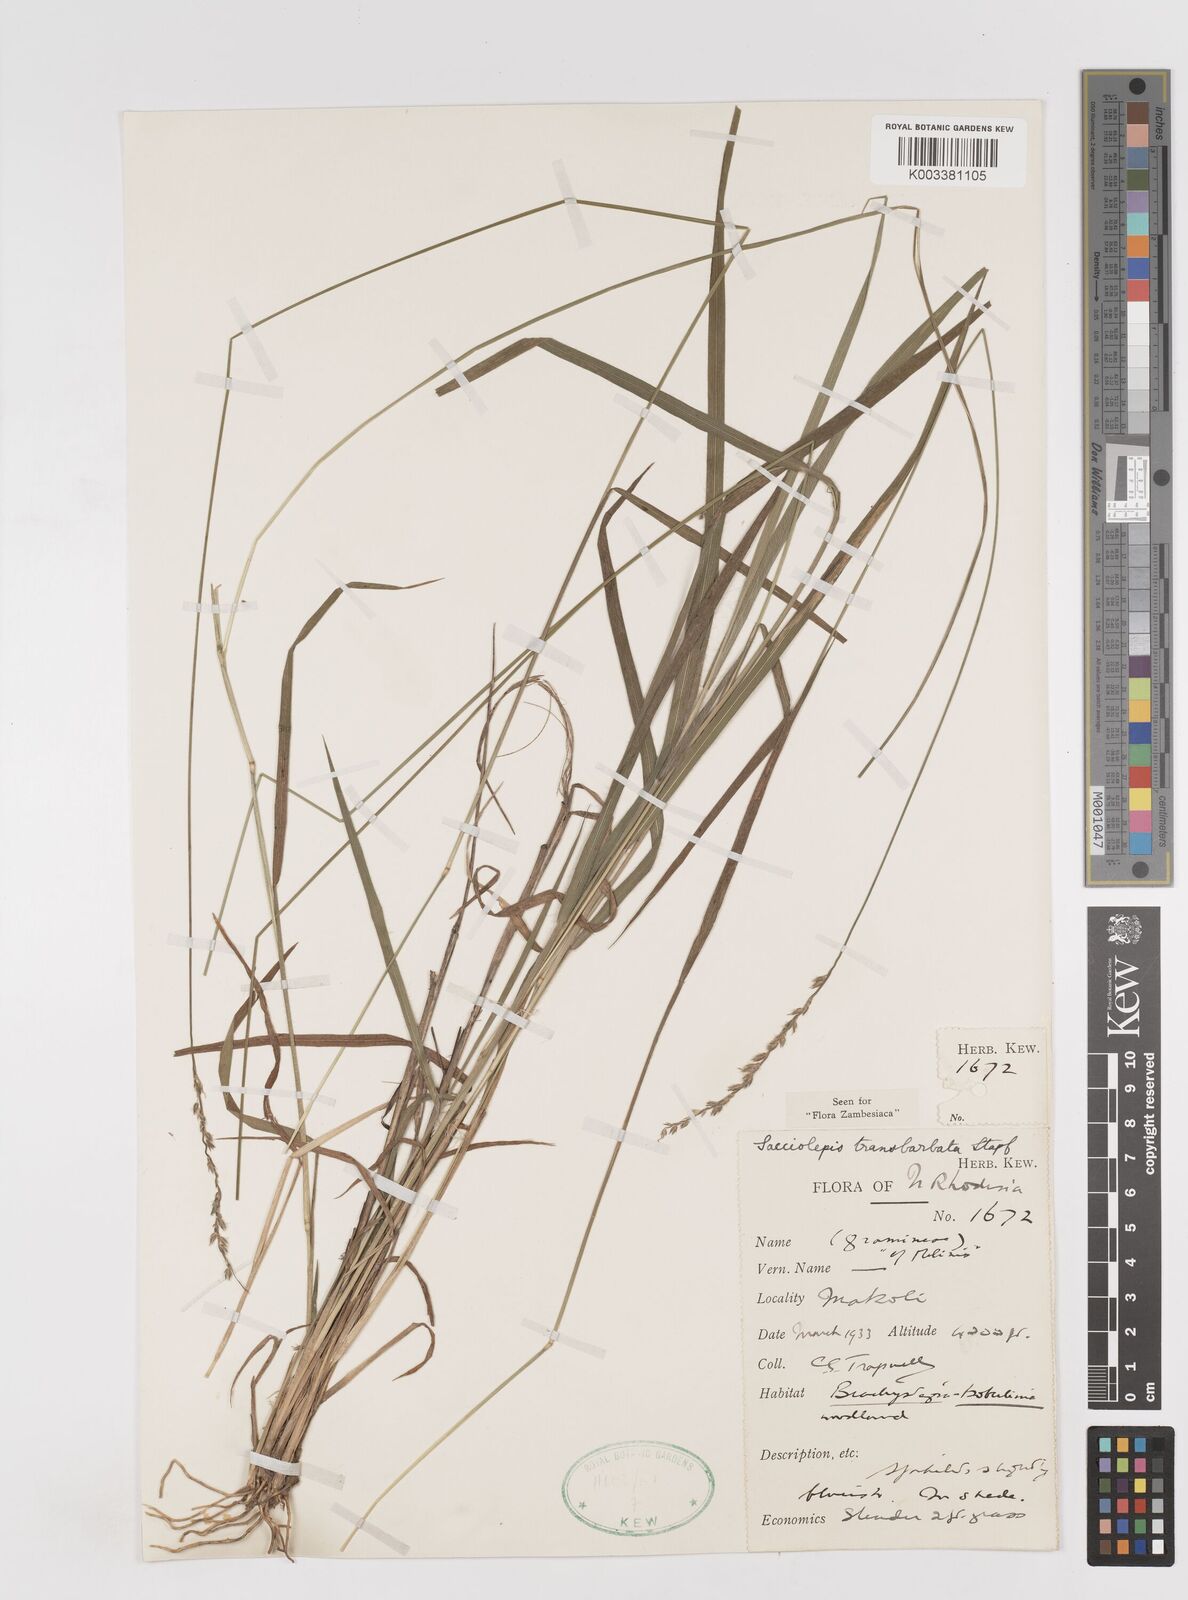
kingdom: Plantae
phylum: Tracheophyta
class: Liliopsida
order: Poales
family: Poaceae
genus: Sacciolepis
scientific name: Sacciolepis transbarbata
